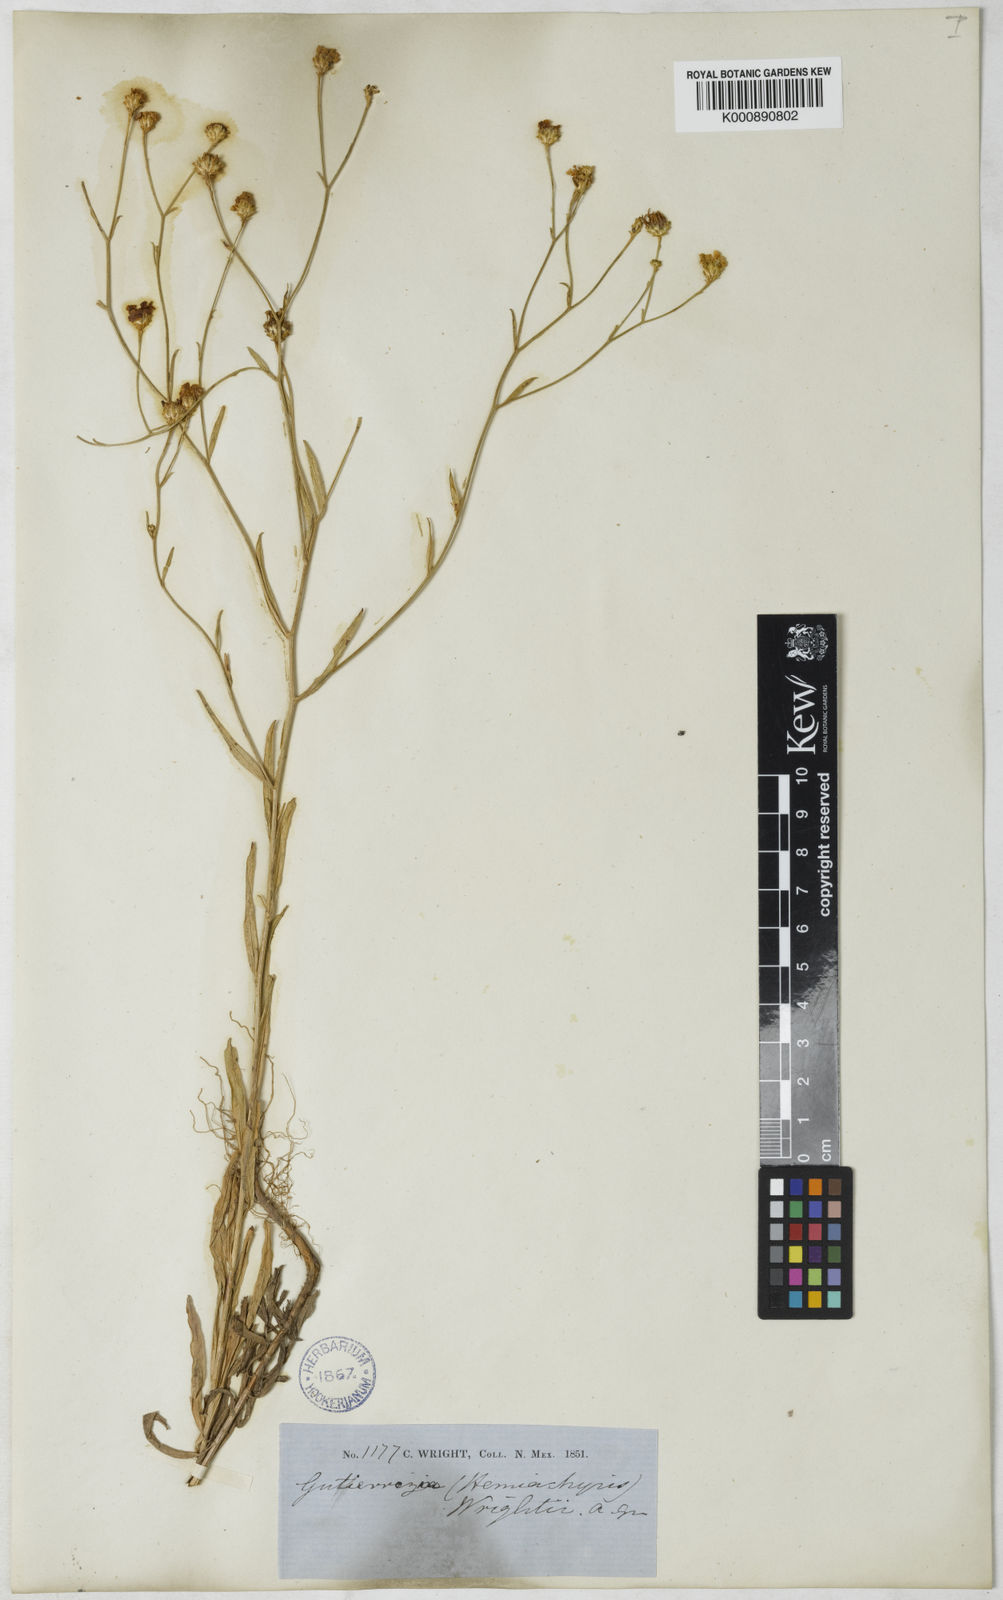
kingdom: Plantae
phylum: Tracheophyta
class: Magnoliopsida
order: Asterales
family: Asteraceae
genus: Gutierrezia
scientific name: Gutierrezia wrightii
